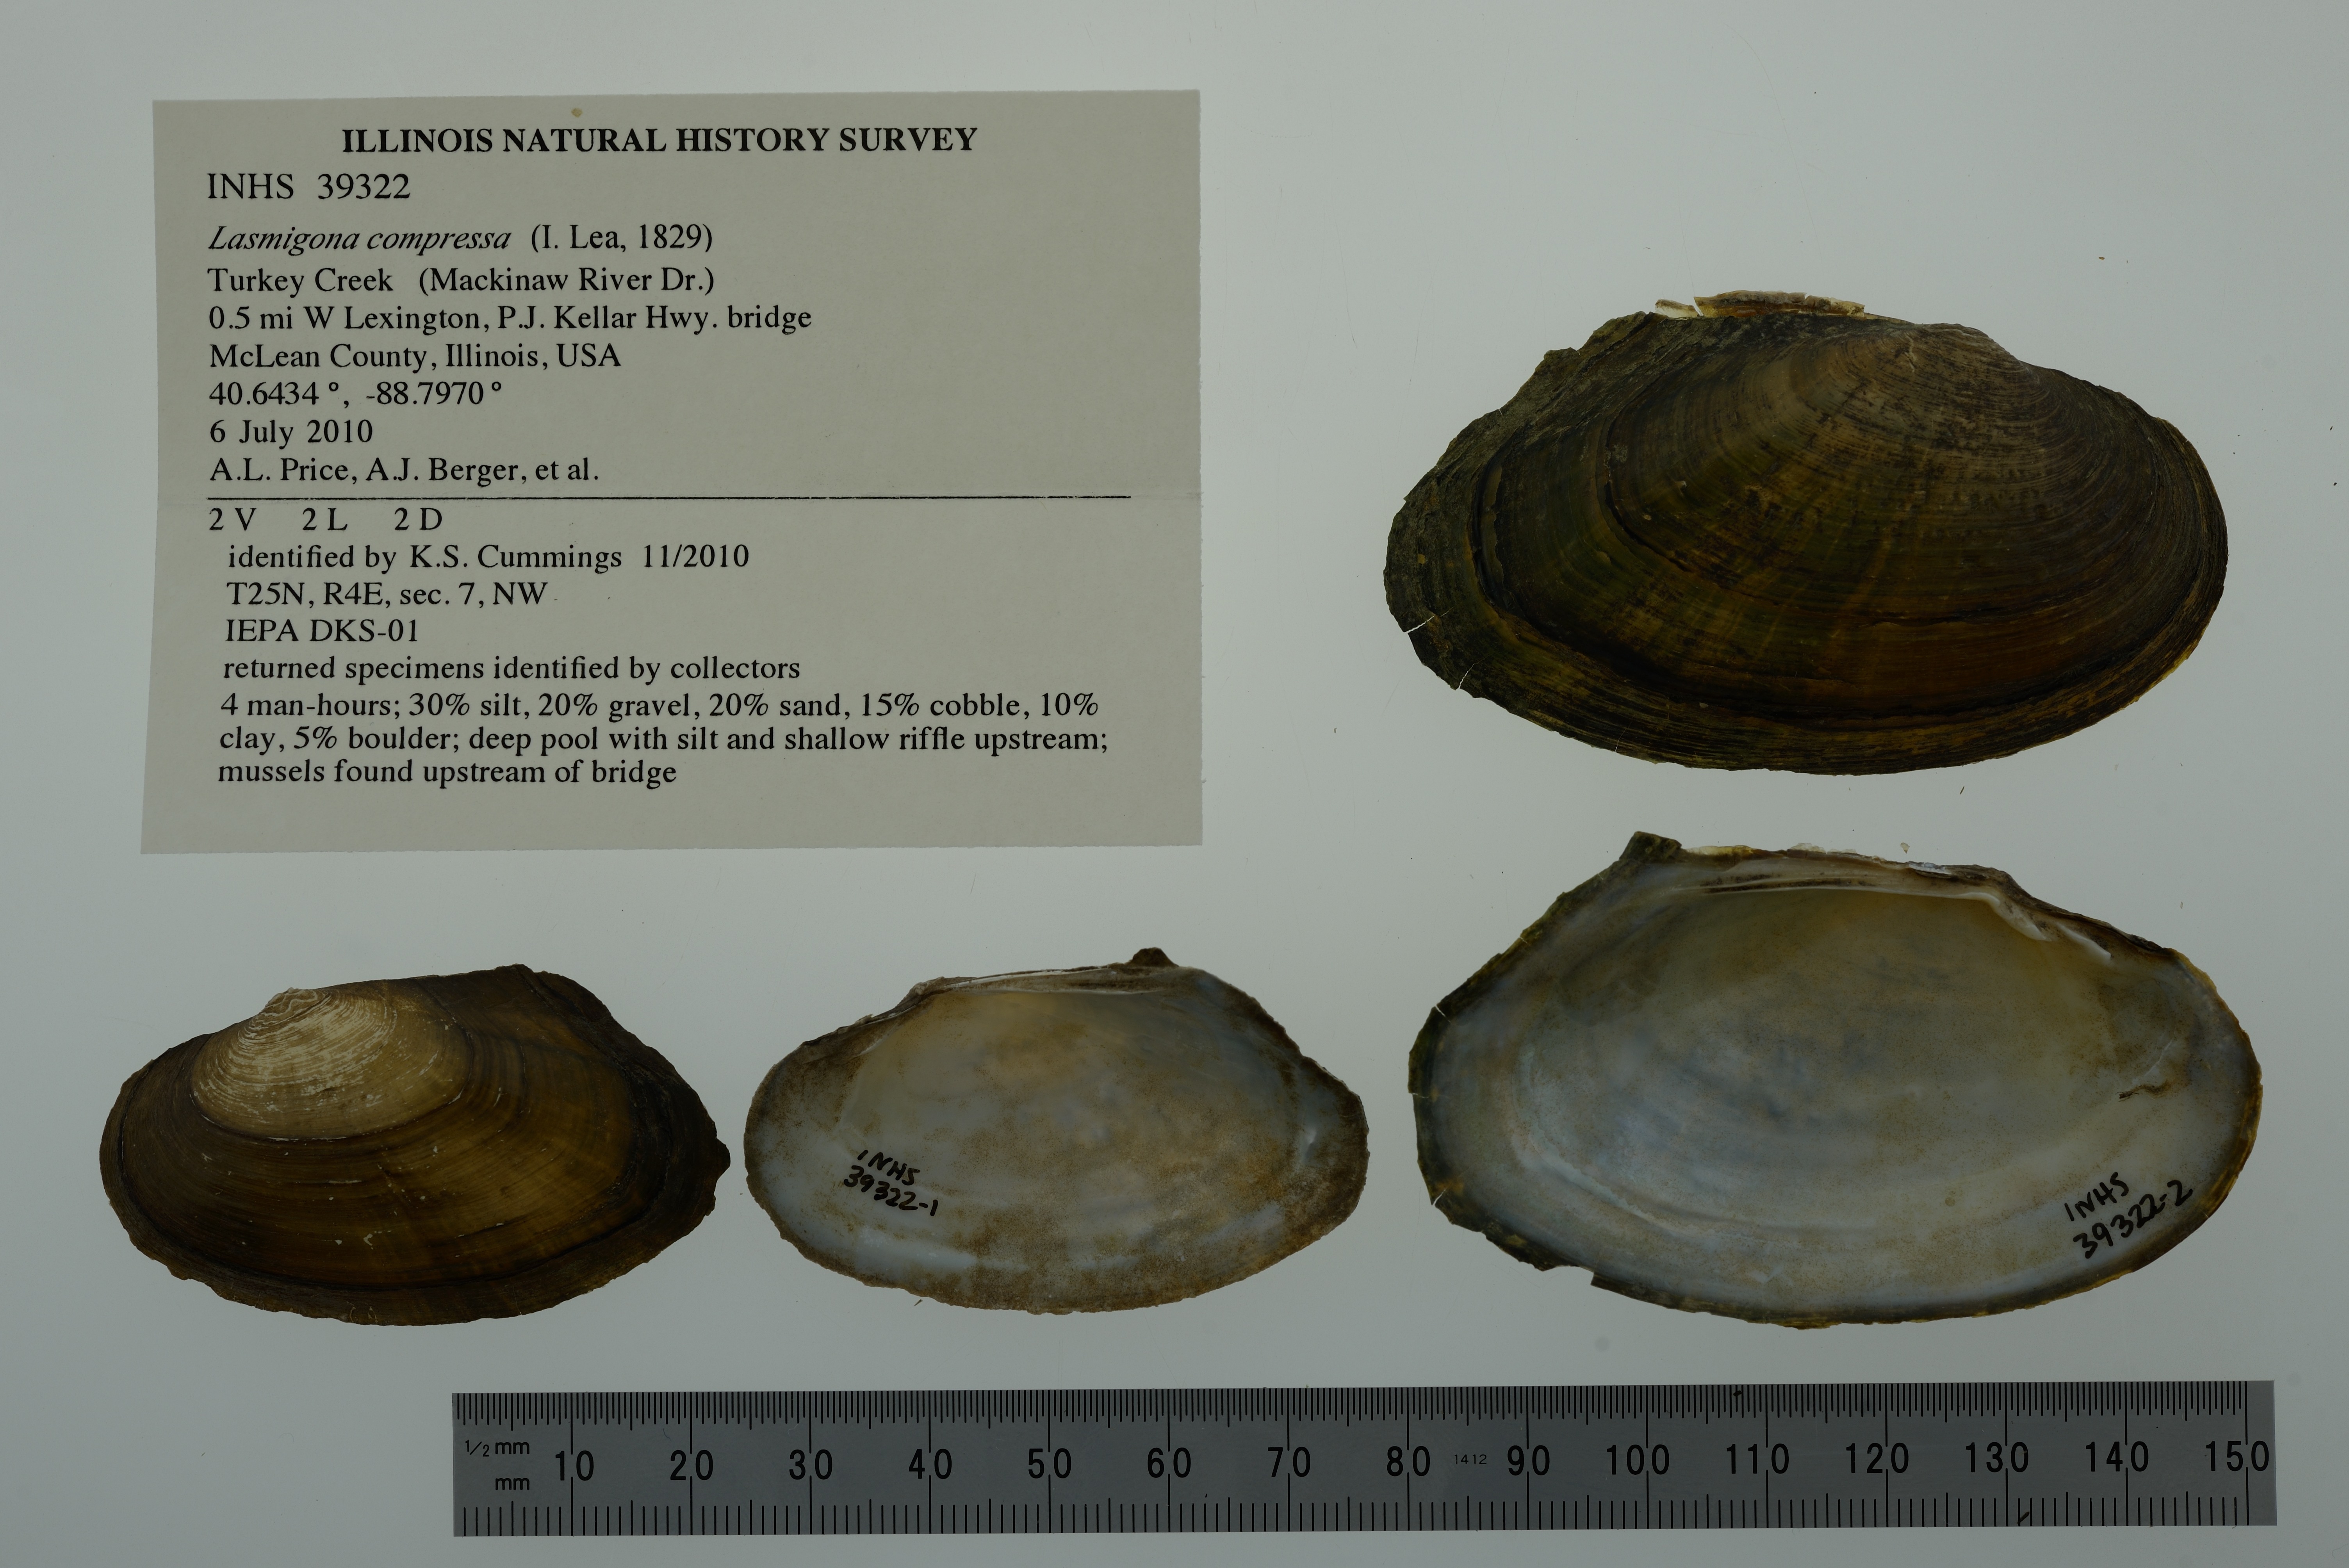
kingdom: Animalia
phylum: Mollusca
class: Bivalvia
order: Unionida
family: Unionidae
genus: Lasmigona
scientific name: Lasmigona compressa
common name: Creek heelsplitter
